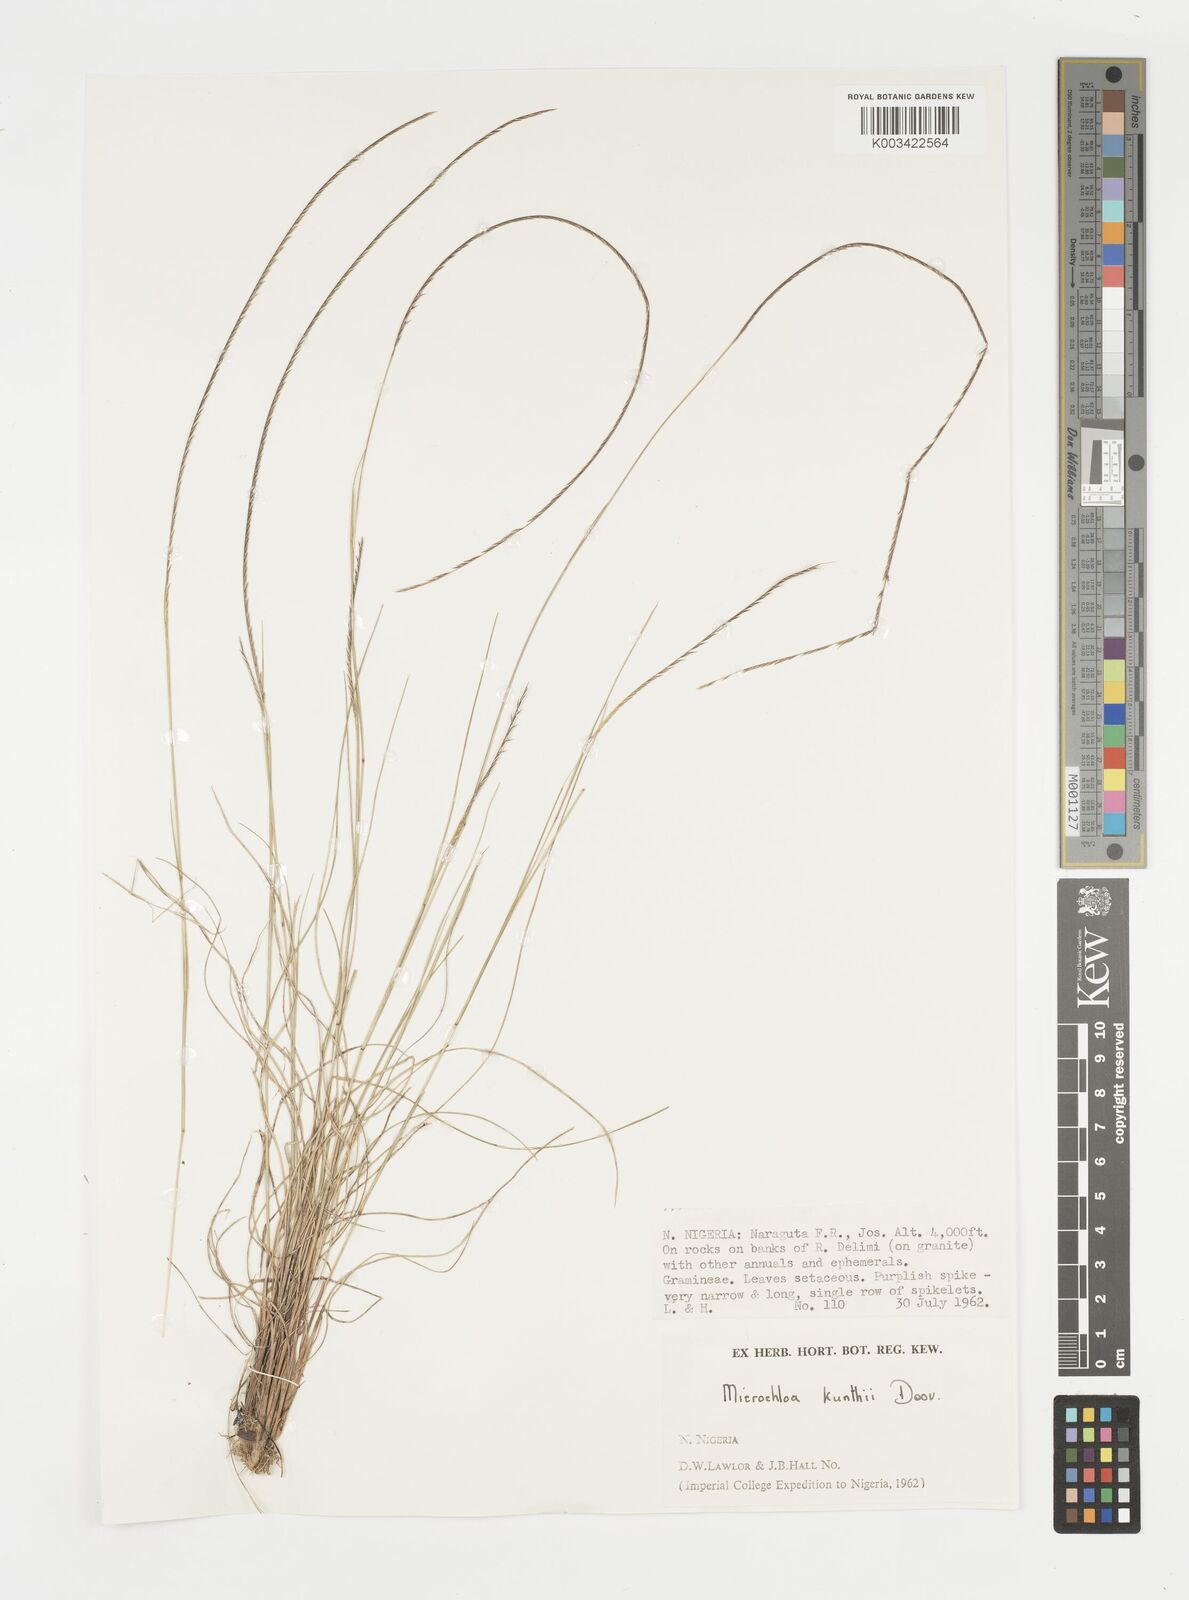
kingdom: Plantae
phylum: Tracheophyta
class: Liliopsida
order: Poales
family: Poaceae
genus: Microchloa
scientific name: Microchloa kunthii
